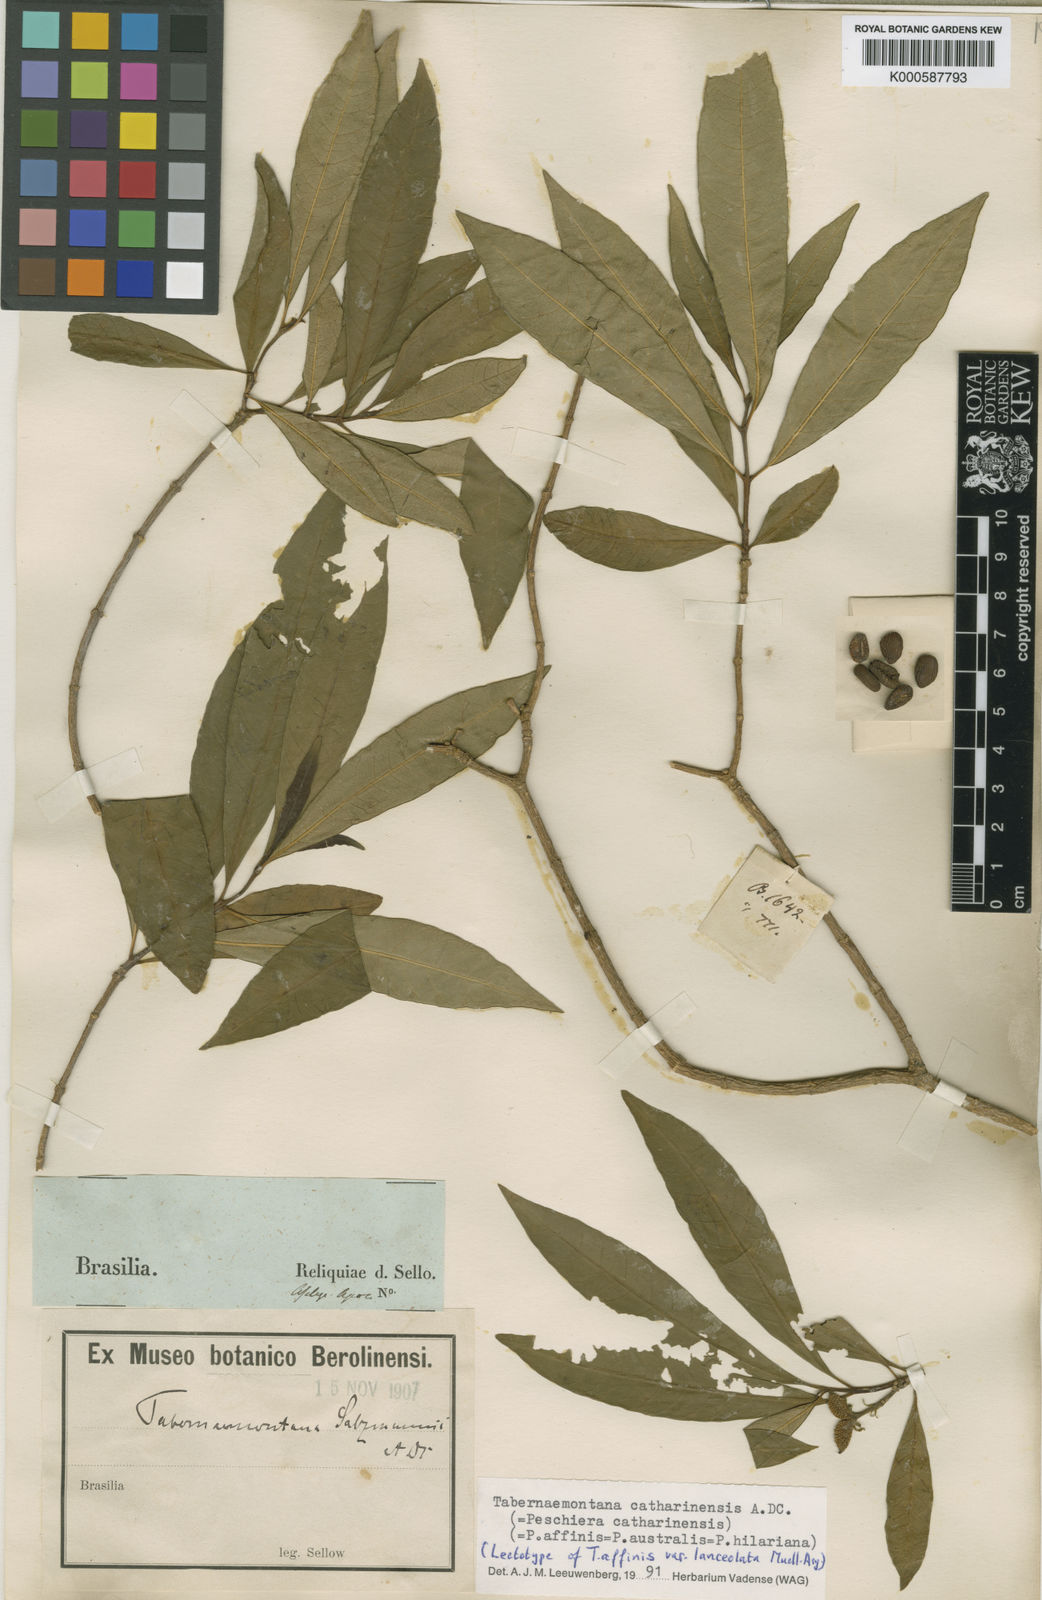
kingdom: Plantae
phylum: Tracheophyta
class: Magnoliopsida
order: Gentianales
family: Apocynaceae
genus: Tabernaemontana
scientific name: Tabernaemontana catharinensis
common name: Pinwheel-flower
